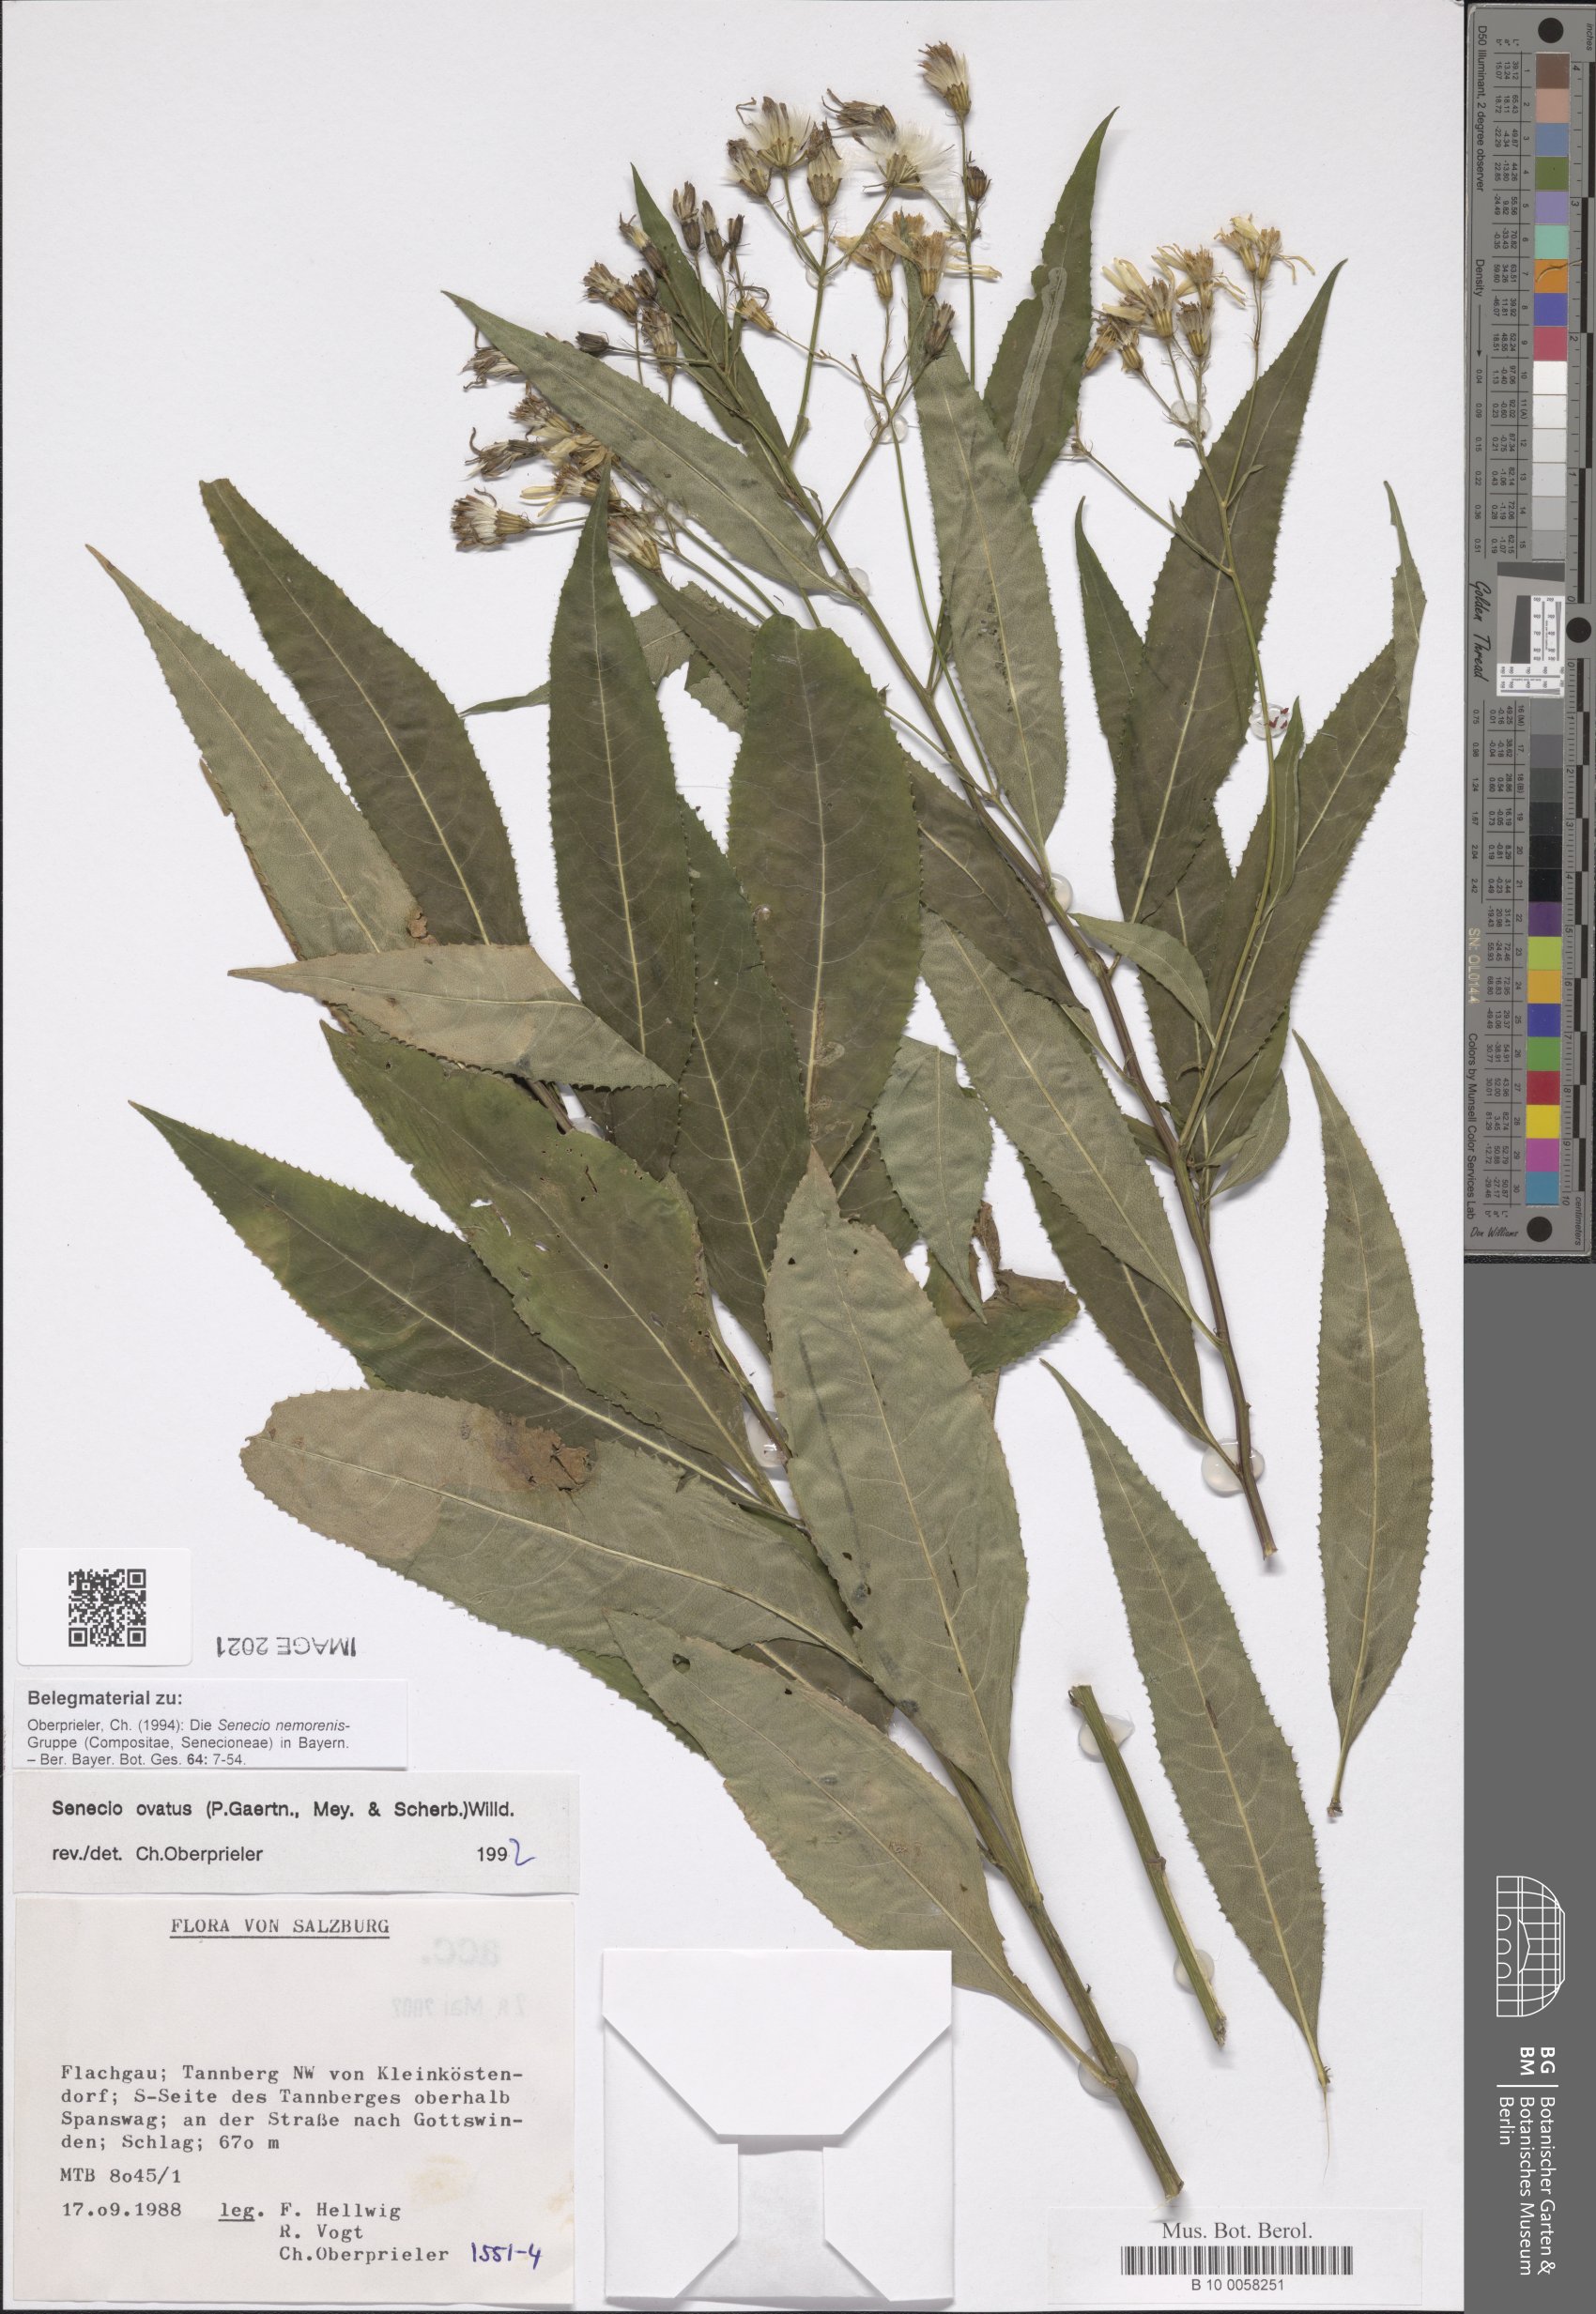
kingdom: Plantae
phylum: Tracheophyta
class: Magnoliopsida
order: Asterales
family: Asteraceae
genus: Senecio
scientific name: Senecio ovatus
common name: Wood ragwort
